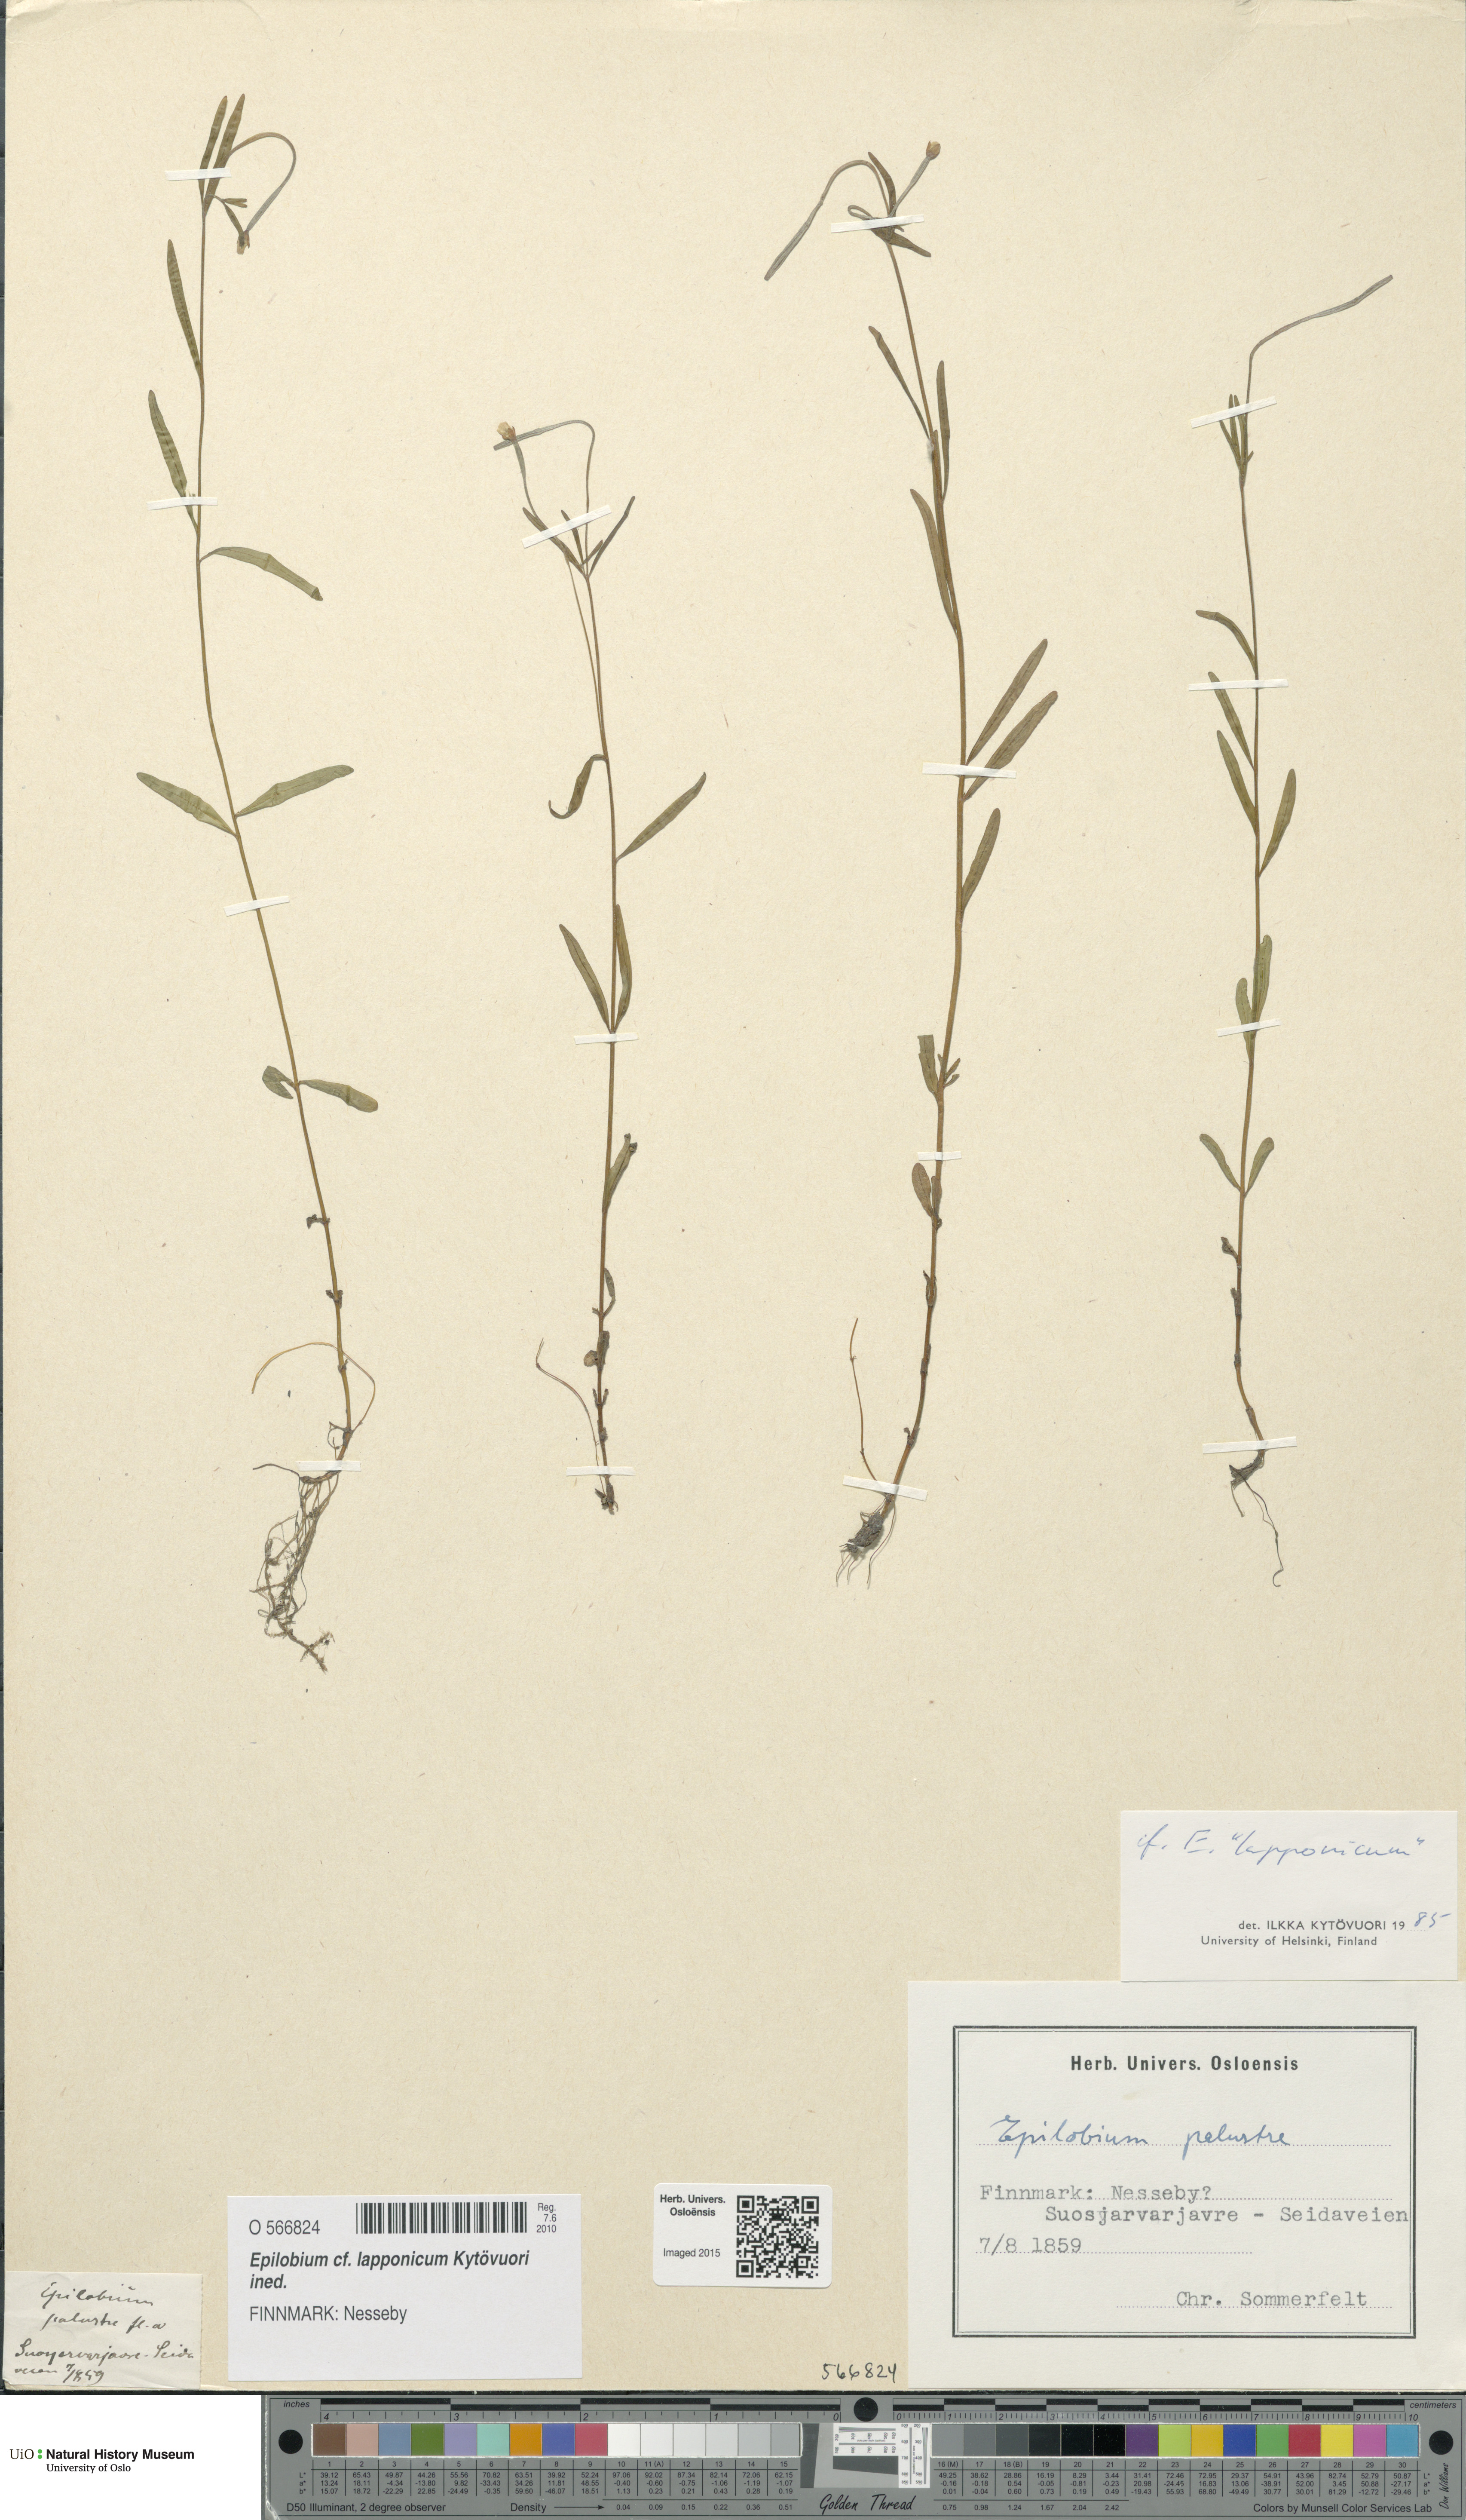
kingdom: Plantae
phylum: Tracheophyta
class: Magnoliopsida
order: Myrtales
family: Onagraceae
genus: Epilobium
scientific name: Epilobium palustre
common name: Marsh willowherb
